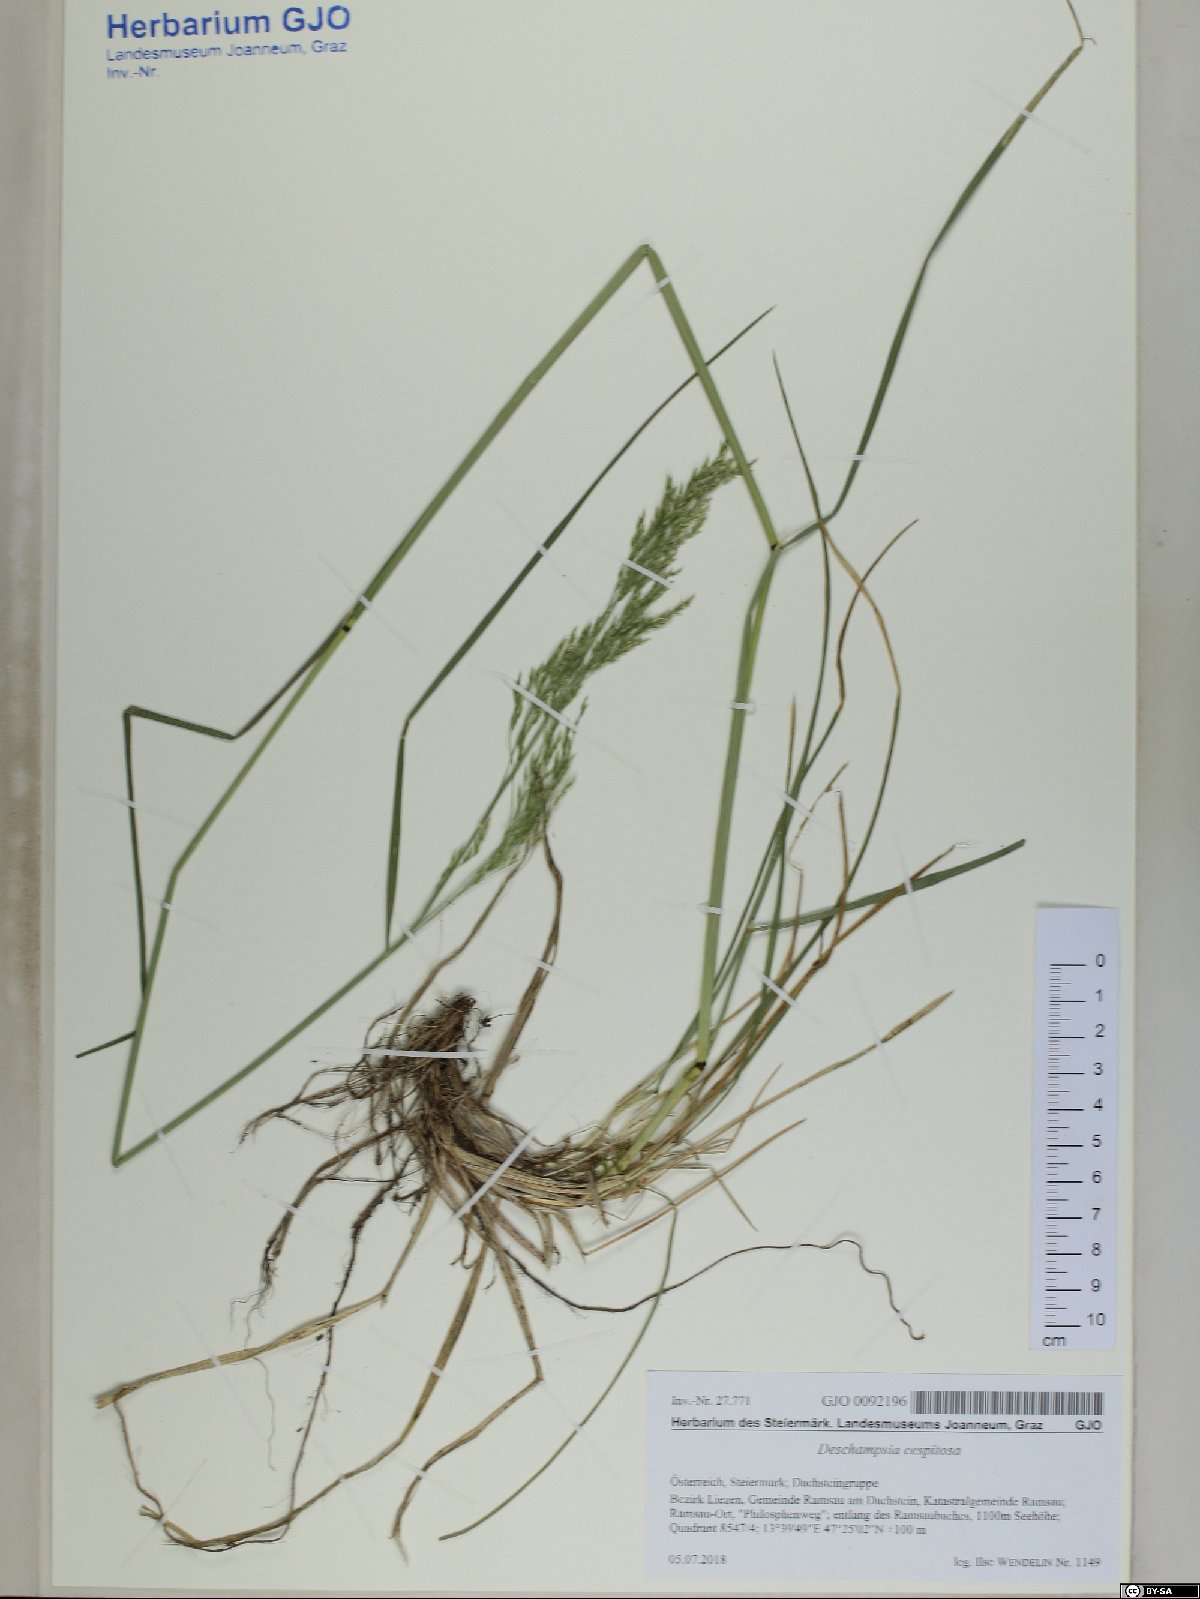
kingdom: Plantae
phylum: Tracheophyta
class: Liliopsida
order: Poales
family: Poaceae
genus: Deschampsia
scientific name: Deschampsia cespitosa
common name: Tufted hair-grass
